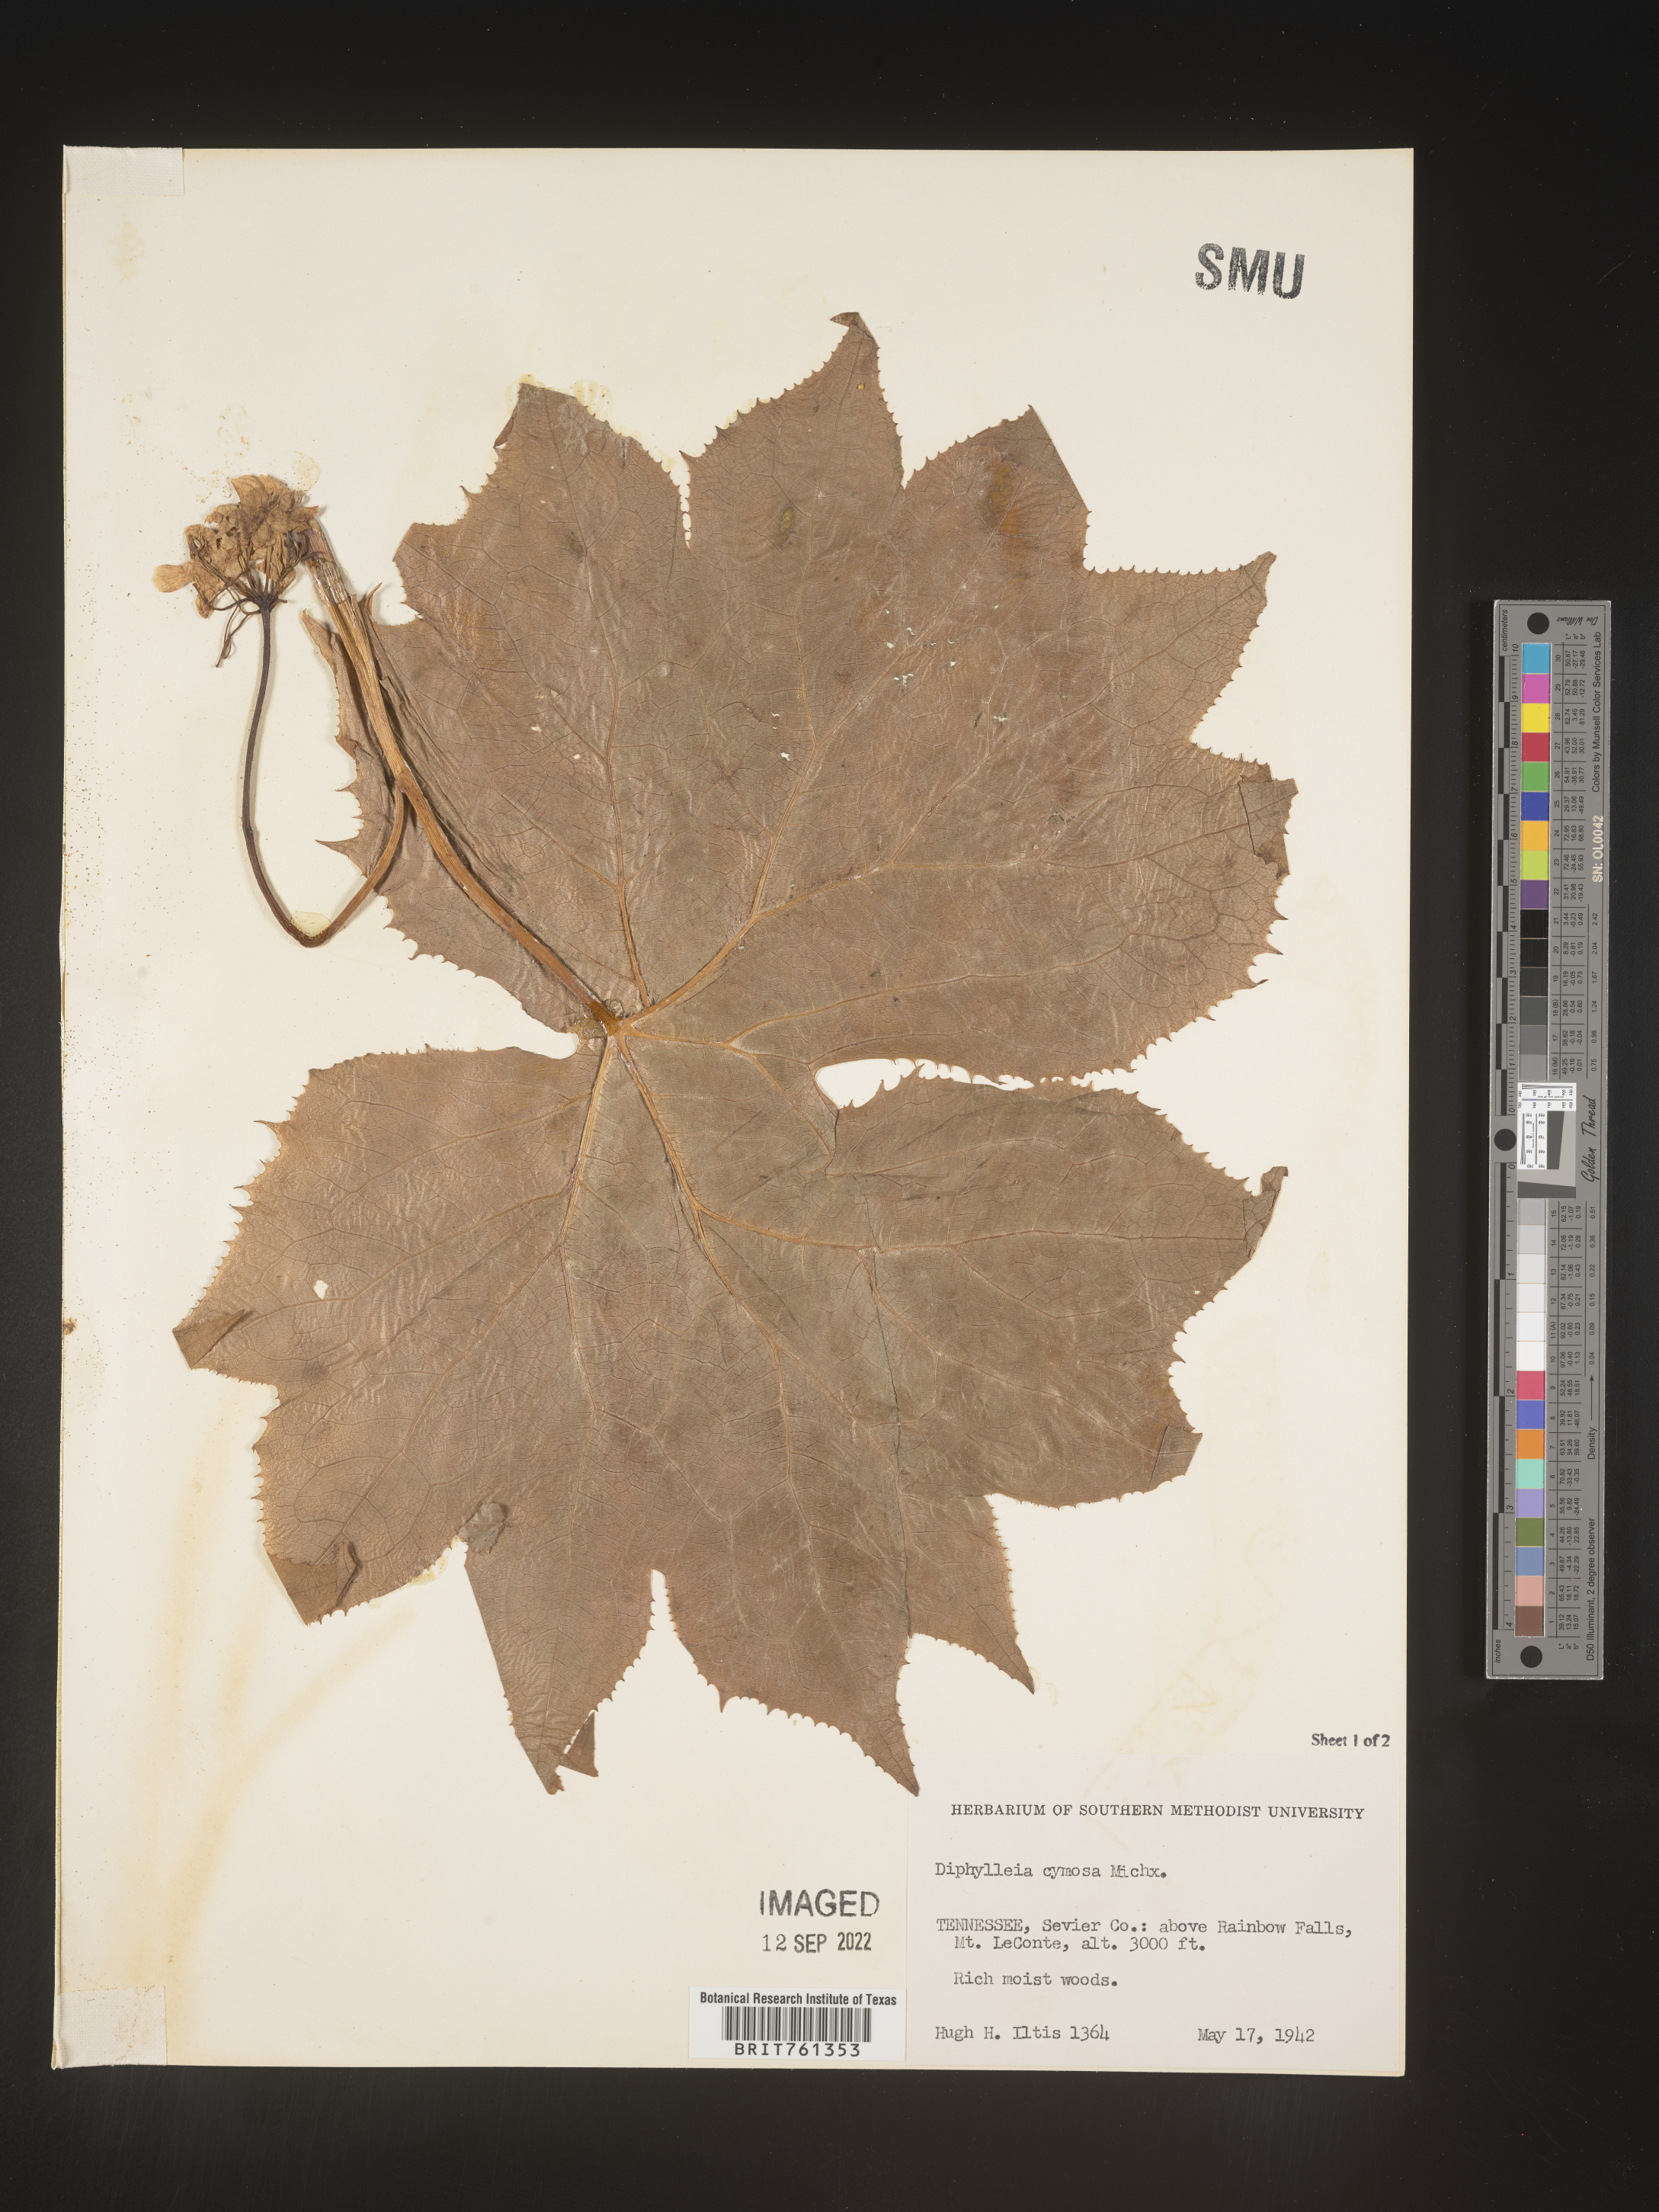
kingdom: Plantae
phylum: Tracheophyta
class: Magnoliopsida
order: Ranunculales
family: Berberidaceae
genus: Diphylleia
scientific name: Diphylleia
